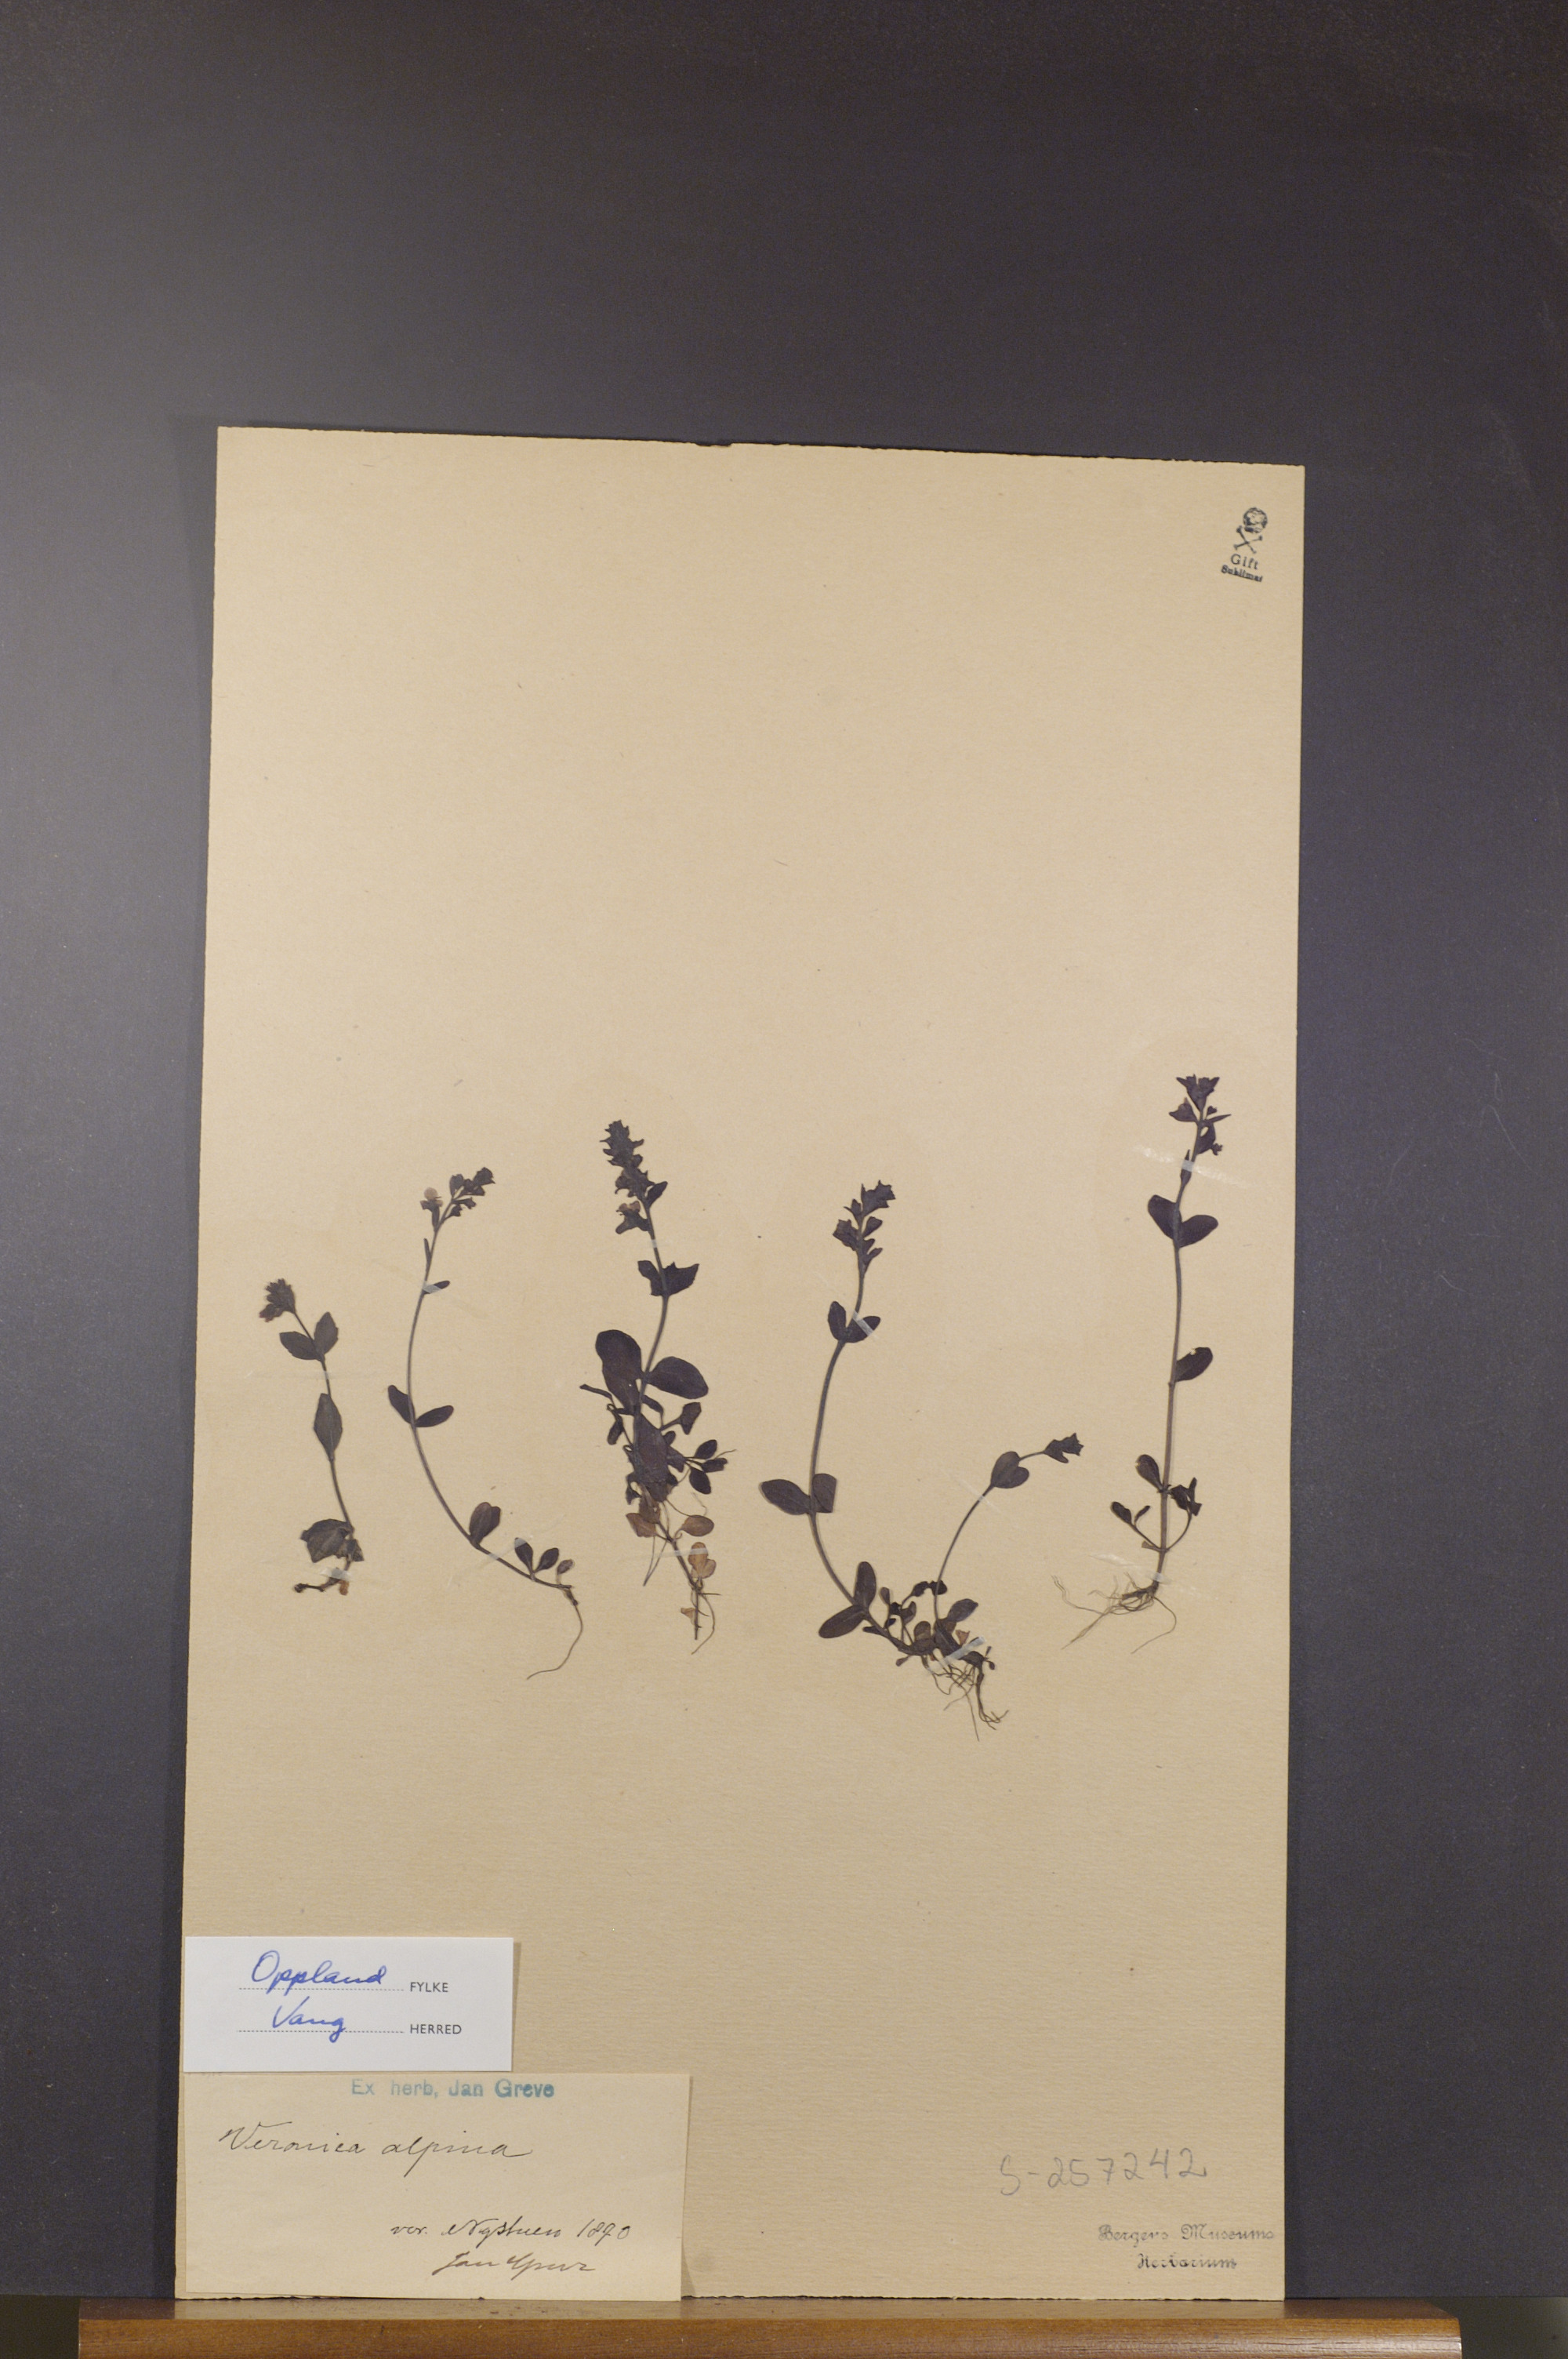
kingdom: Plantae
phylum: Tracheophyta
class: Magnoliopsida
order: Lamiales
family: Plantaginaceae
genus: Veronica
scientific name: Veronica alpina
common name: Alpine speedwell
